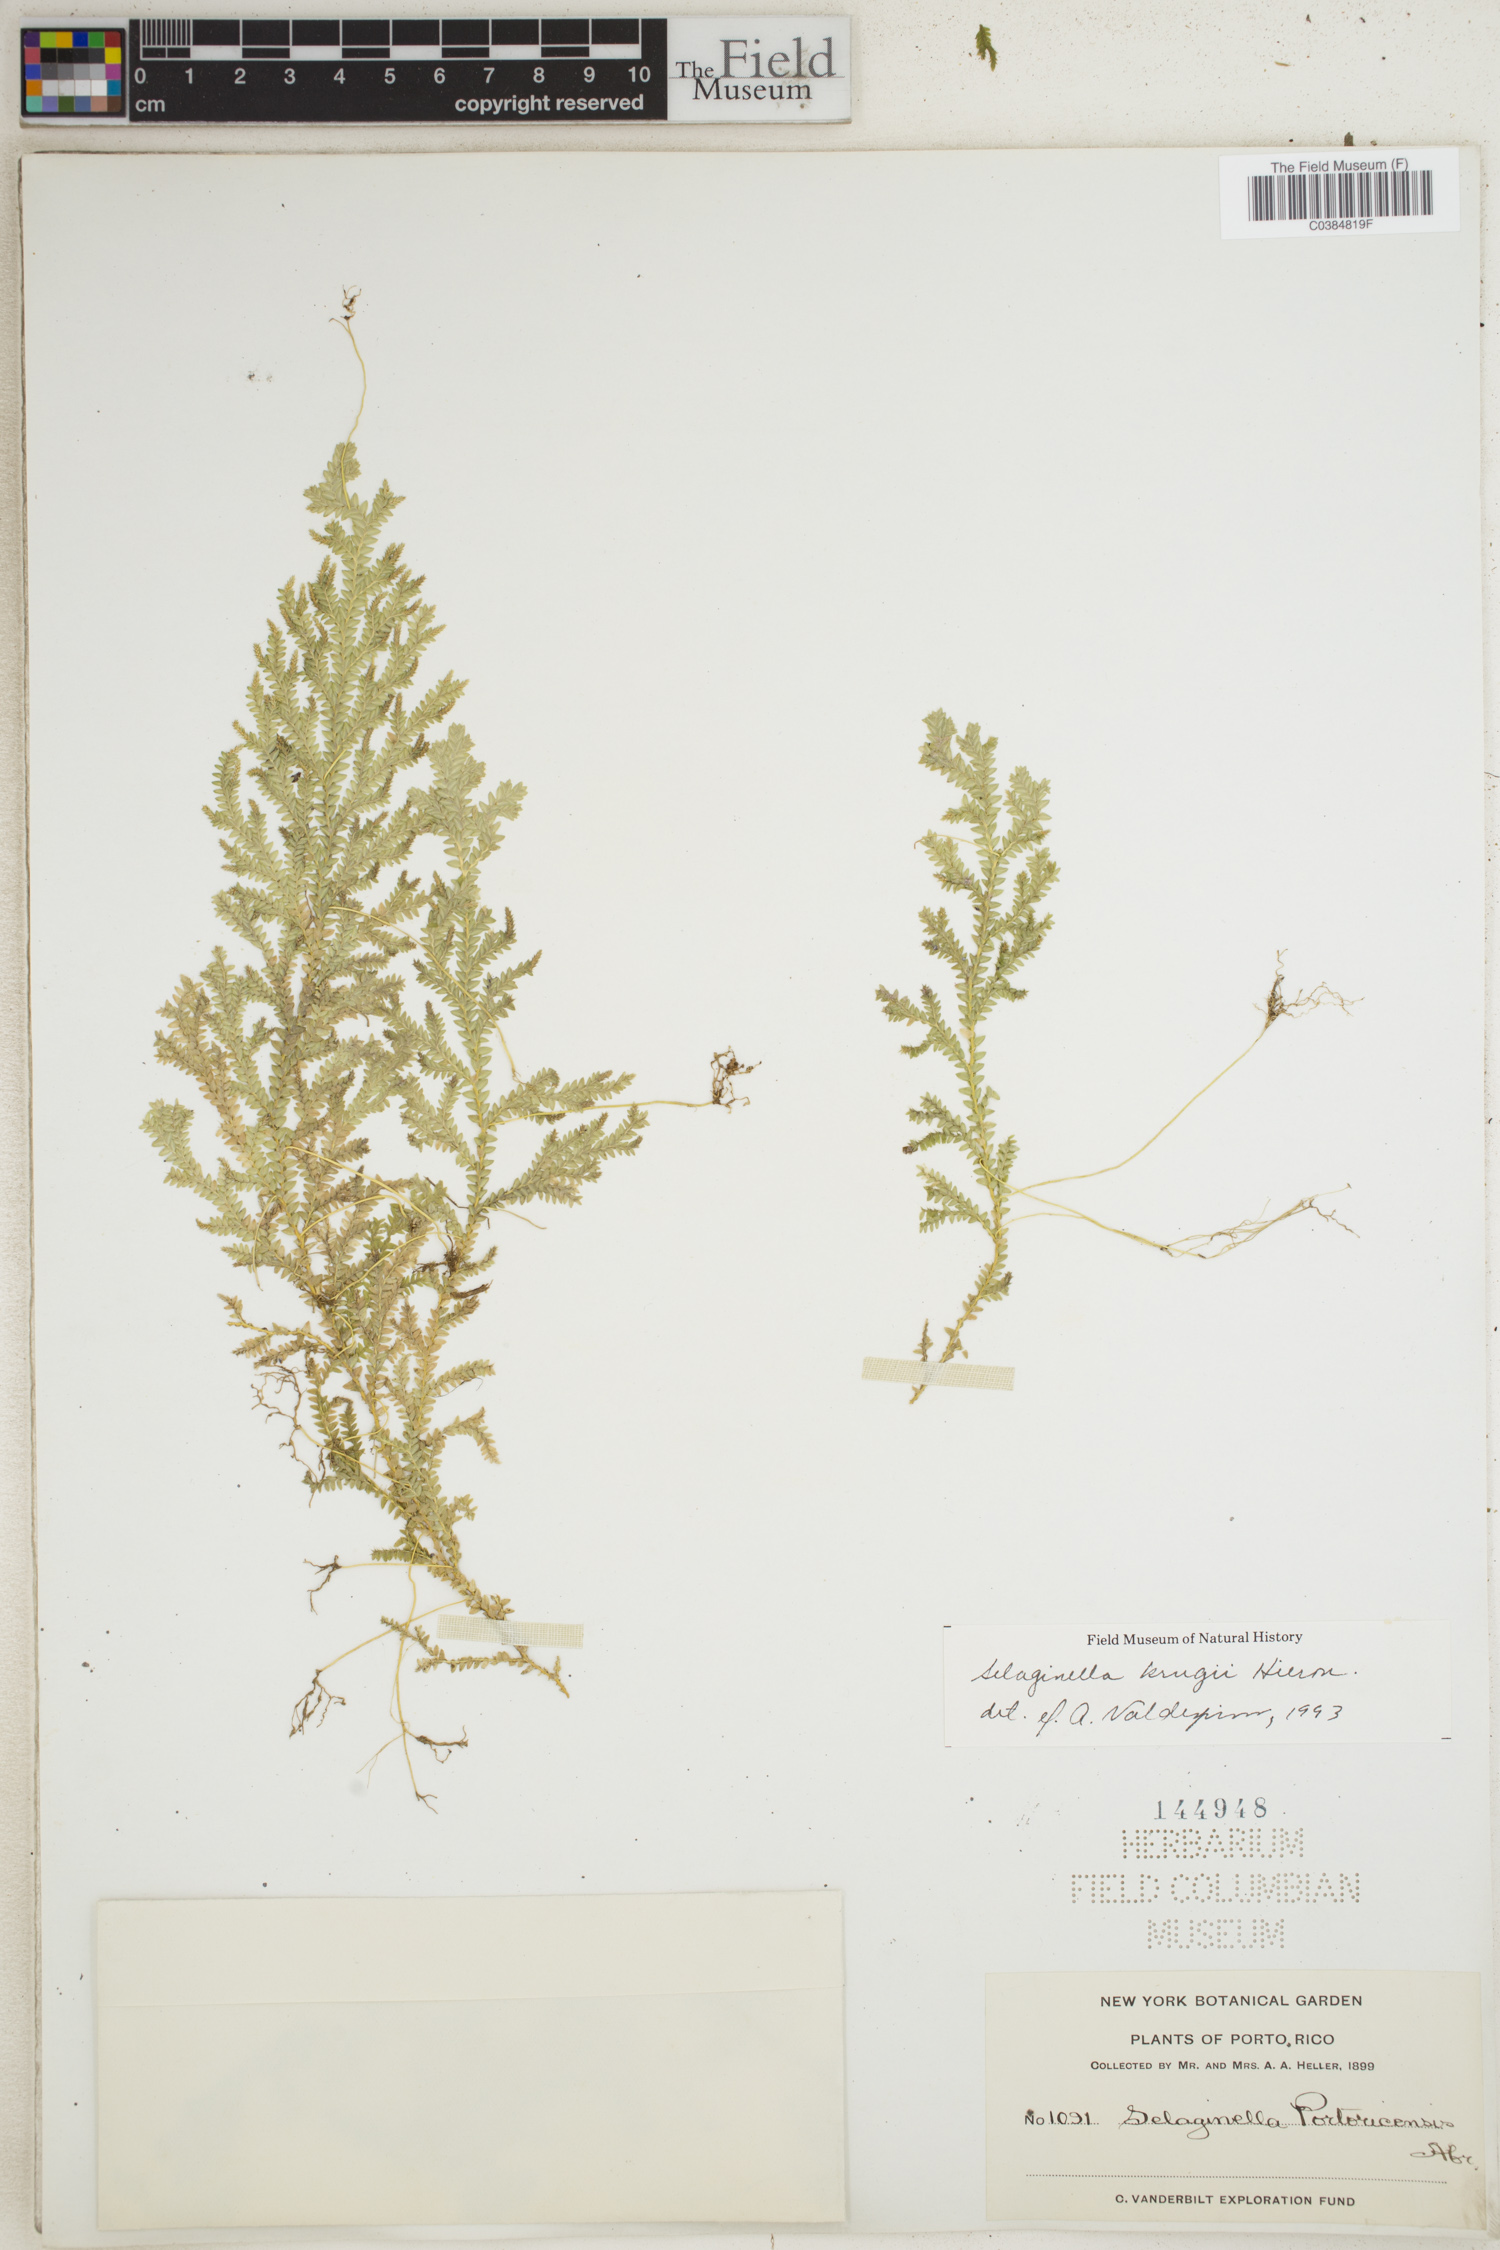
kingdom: Plantae
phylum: Tracheophyta
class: Lycopodiopsida
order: Selaginellales
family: Selaginellaceae
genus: Selaginella
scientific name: Selaginella krugii
